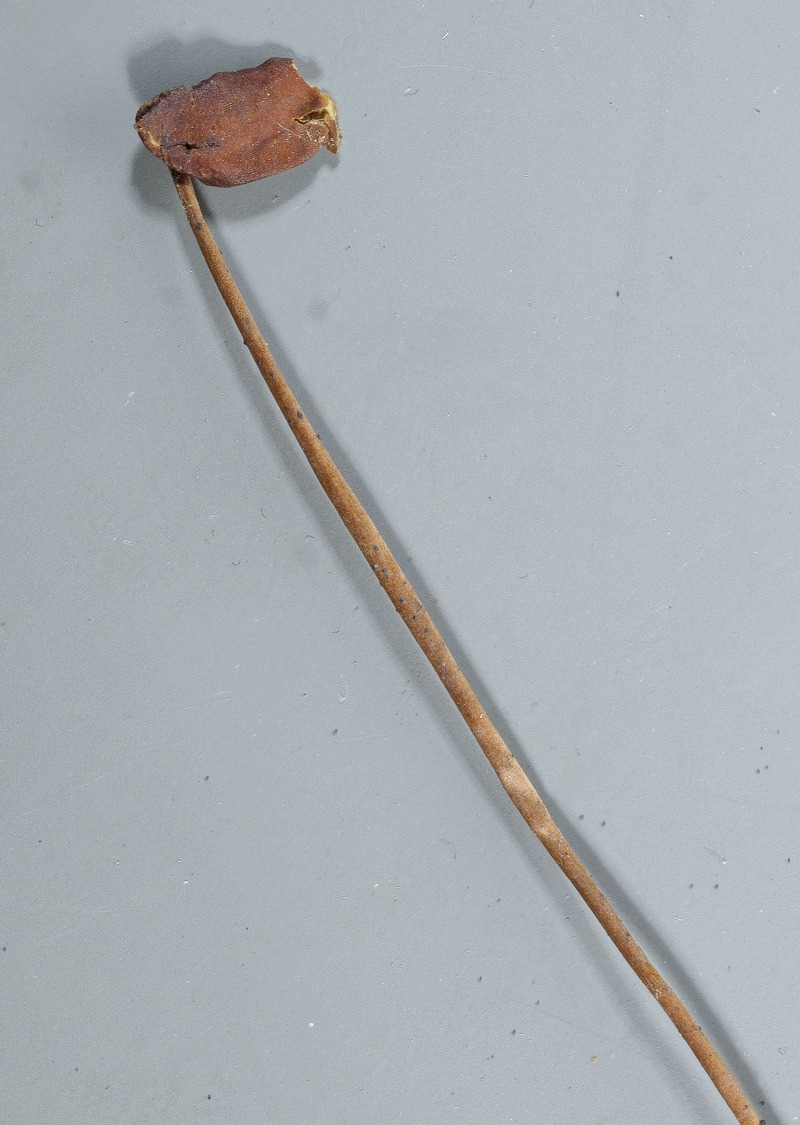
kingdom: Fungi
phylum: Ascomycota
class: Leotiomycetes
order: Helotiales
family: Pezizellaceae
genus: Velutaria
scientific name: Velutaria polytrichi
